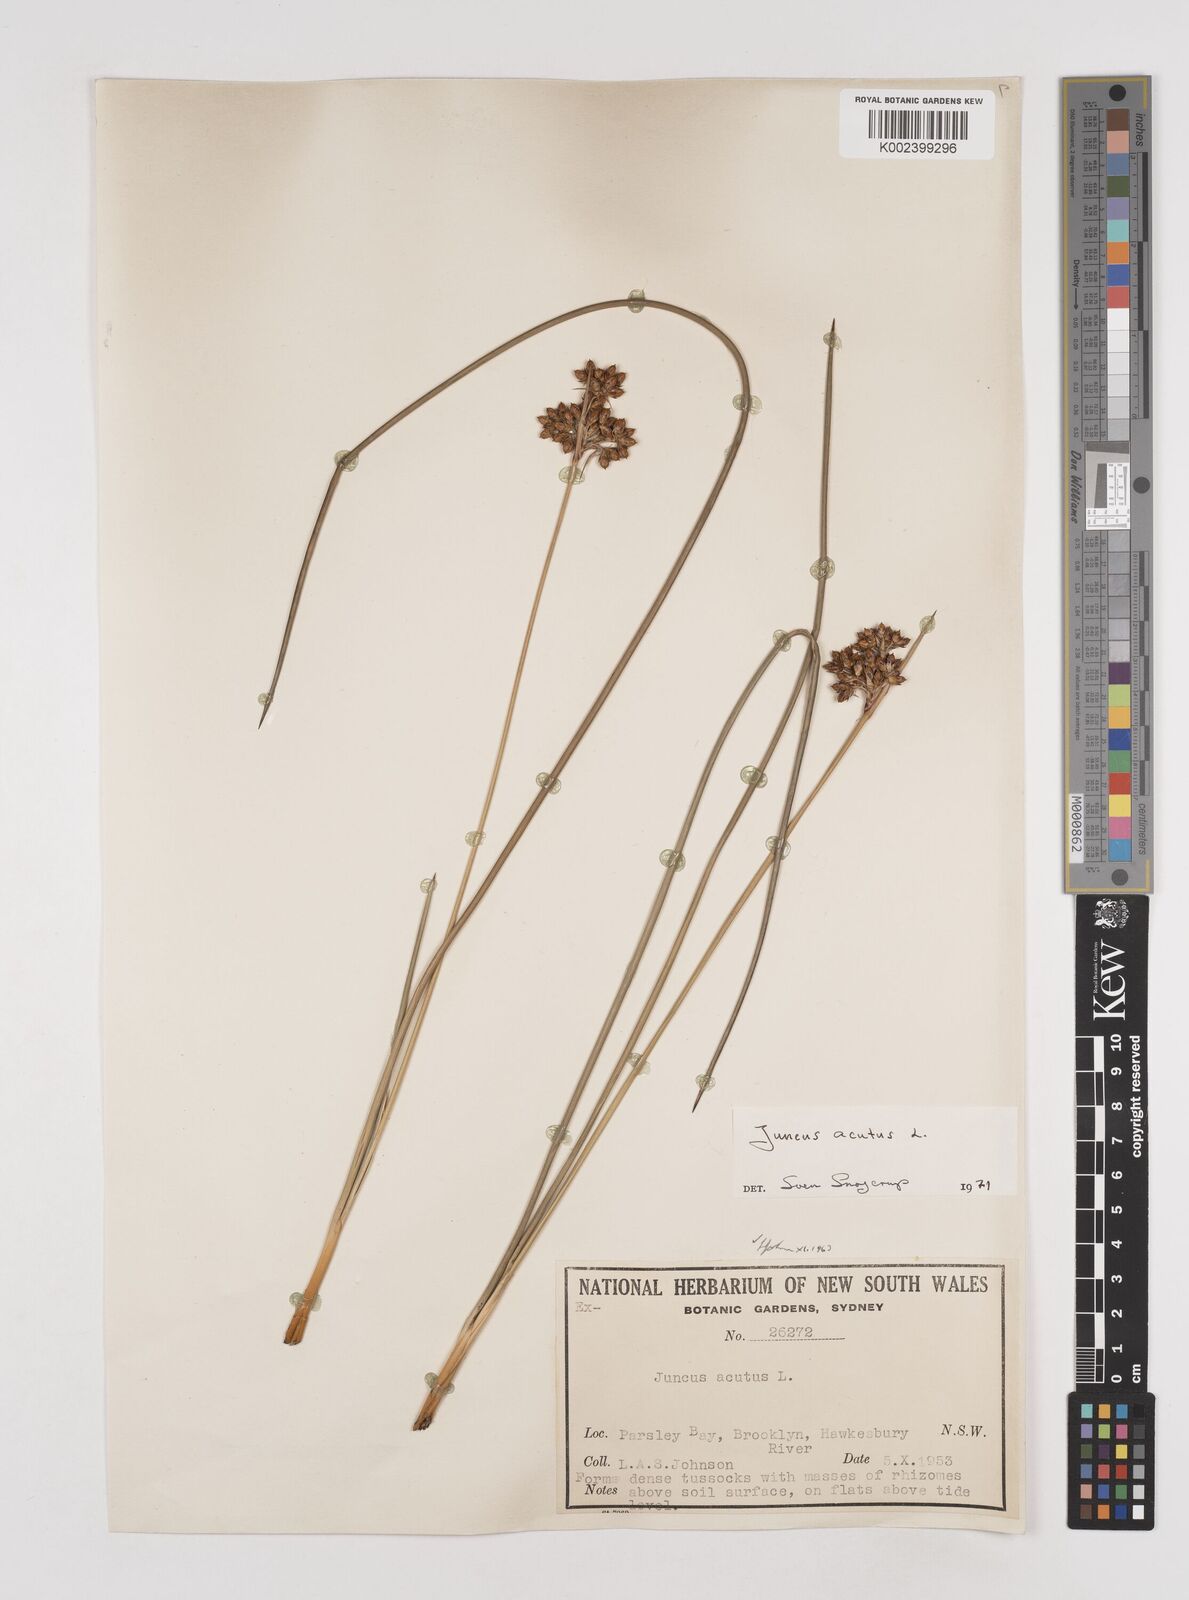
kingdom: Plantae
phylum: Tracheophyta
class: Liliopsida
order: Poales
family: Juncaceae
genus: Juncus
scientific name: Juncus acutus
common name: Sharp rush
